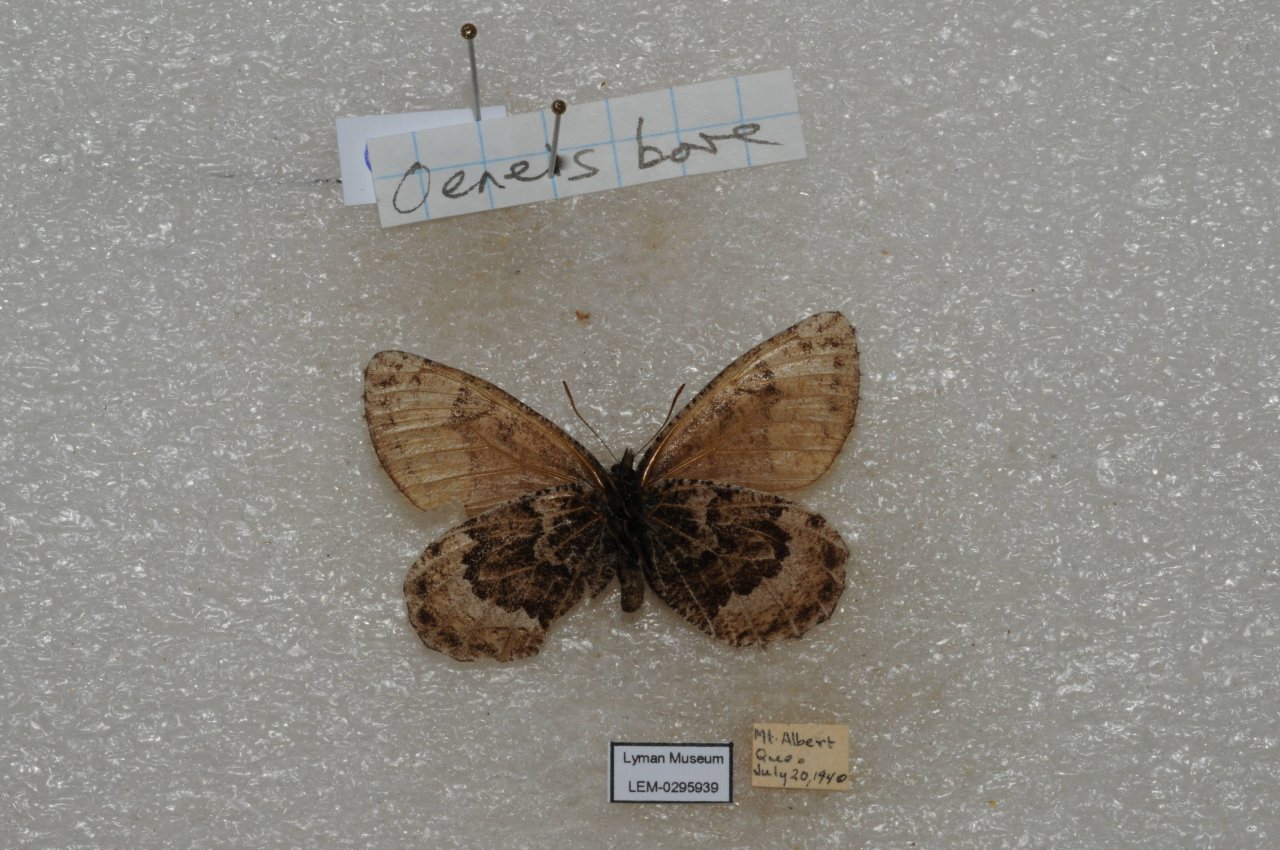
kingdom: Animalia
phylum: Arthropoda
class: Insecta
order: Lepidoptera
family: Nymphalidae
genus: Oeneis
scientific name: Oeneis bore
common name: White-veined Arctic
